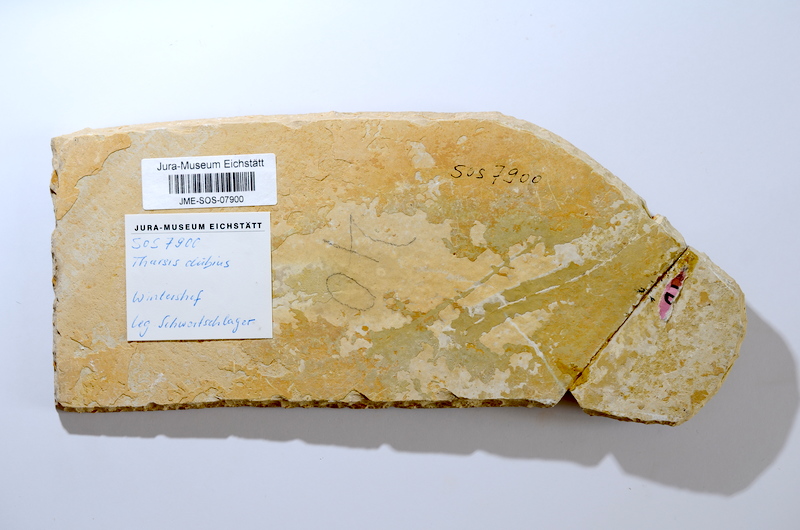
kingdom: Animalia
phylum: Chordata
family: Ascalaboidae
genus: Tharsis
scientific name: Tharsis dubius
